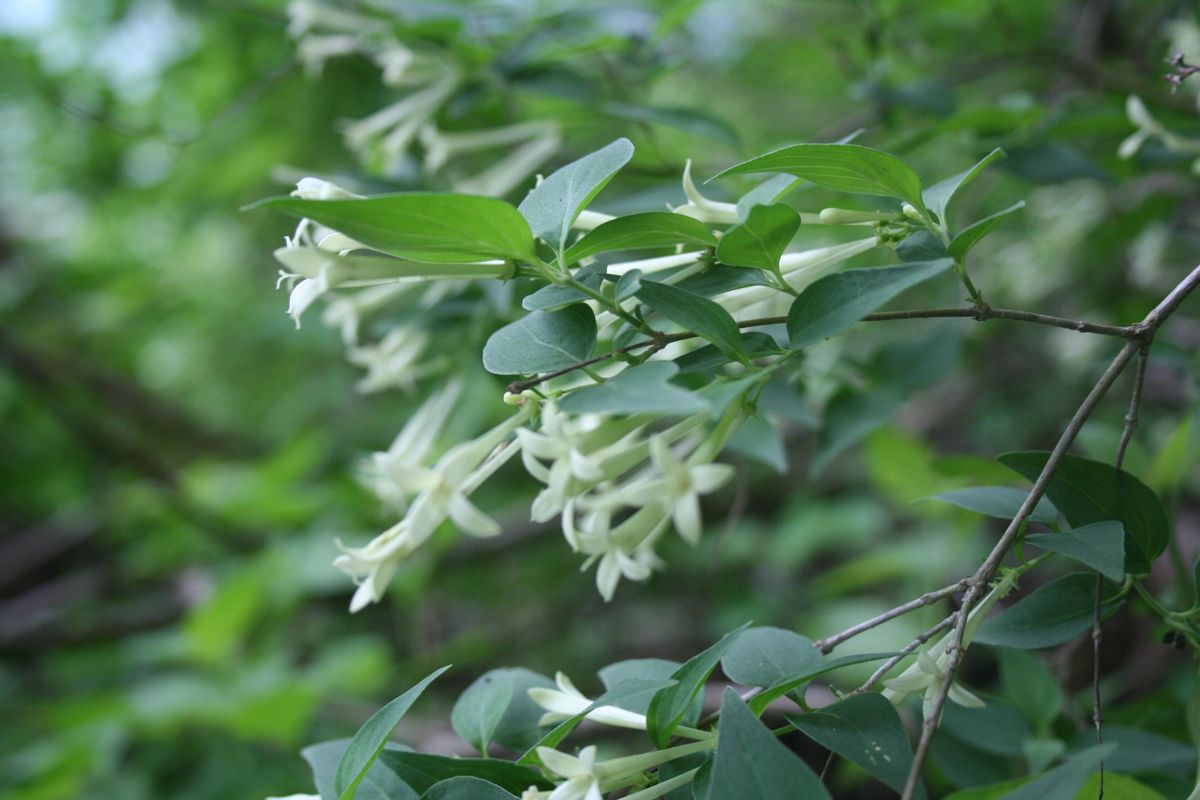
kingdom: Plantae
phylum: Tracheophyta
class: Magnoliopsida
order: Gentianales
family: Rubiaceae
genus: Bouvardia
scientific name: Bouvardia multiflora
